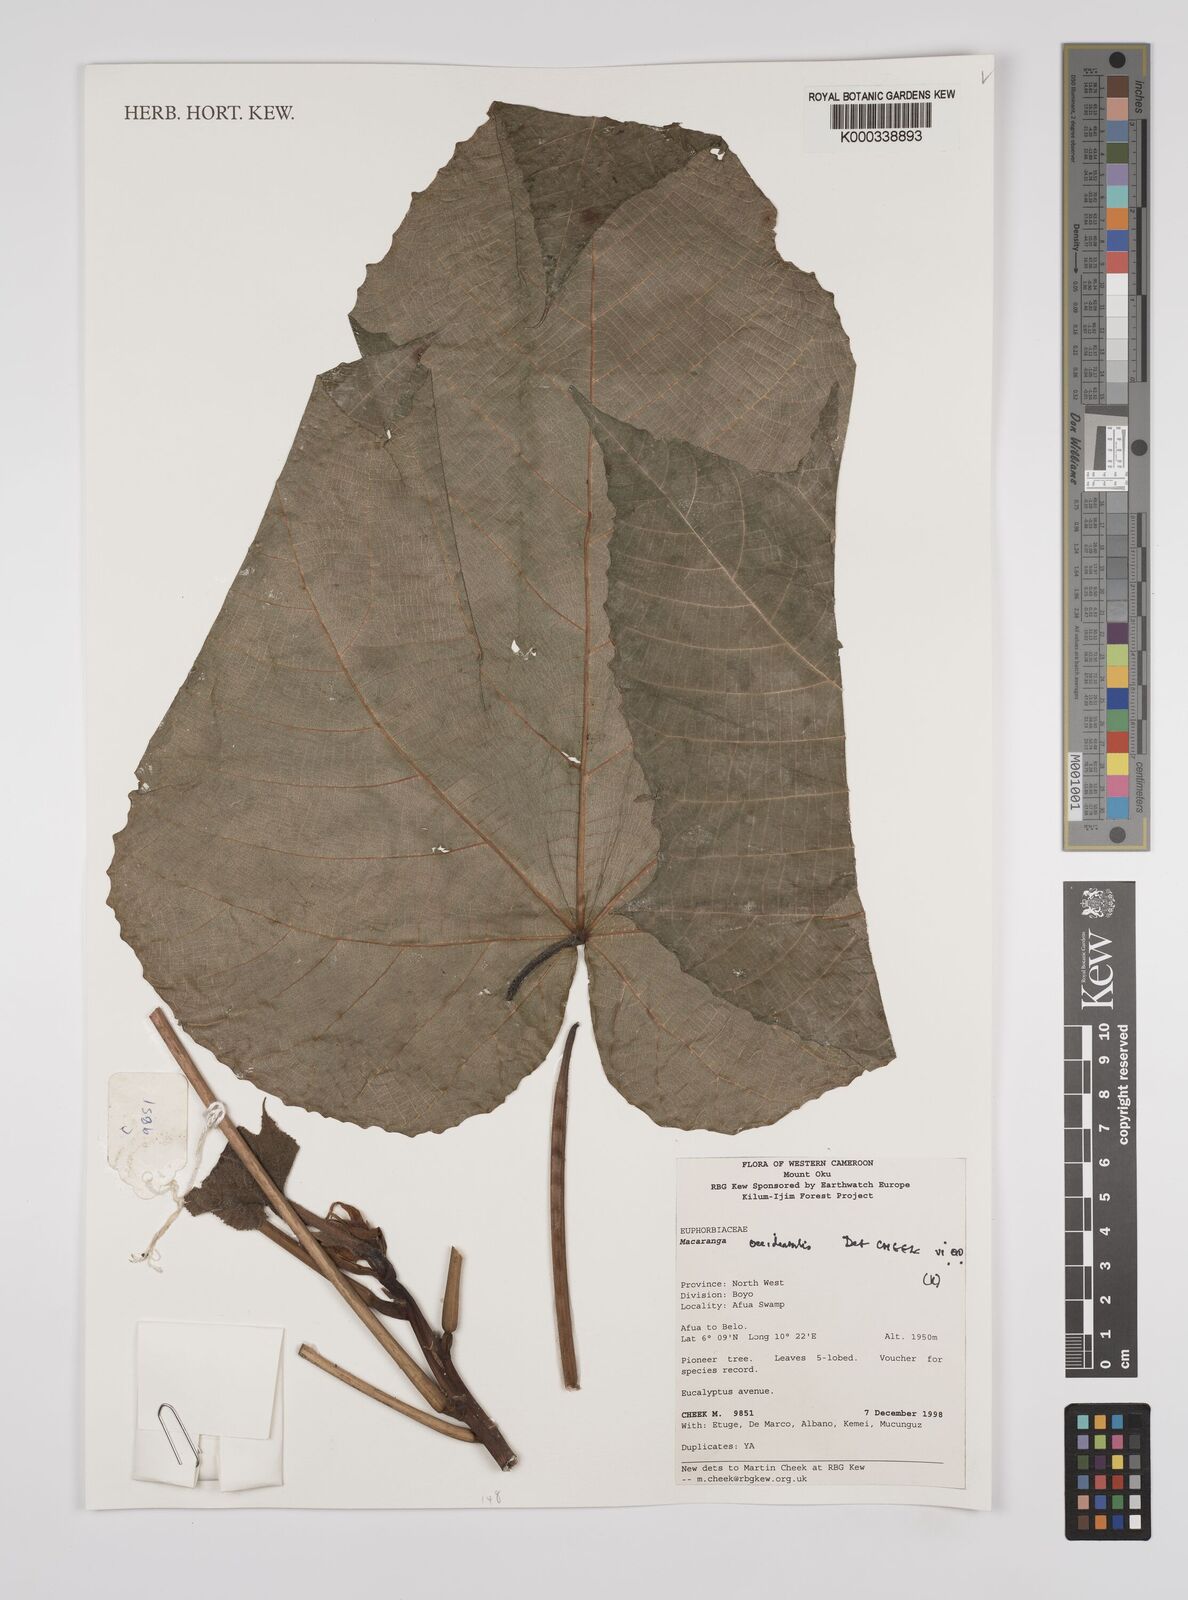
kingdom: Plantae
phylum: Tracheophyta
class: Magnoliopsida
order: Malpighiales
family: Euphorbiaceae
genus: Macaranga
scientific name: Macaranga
